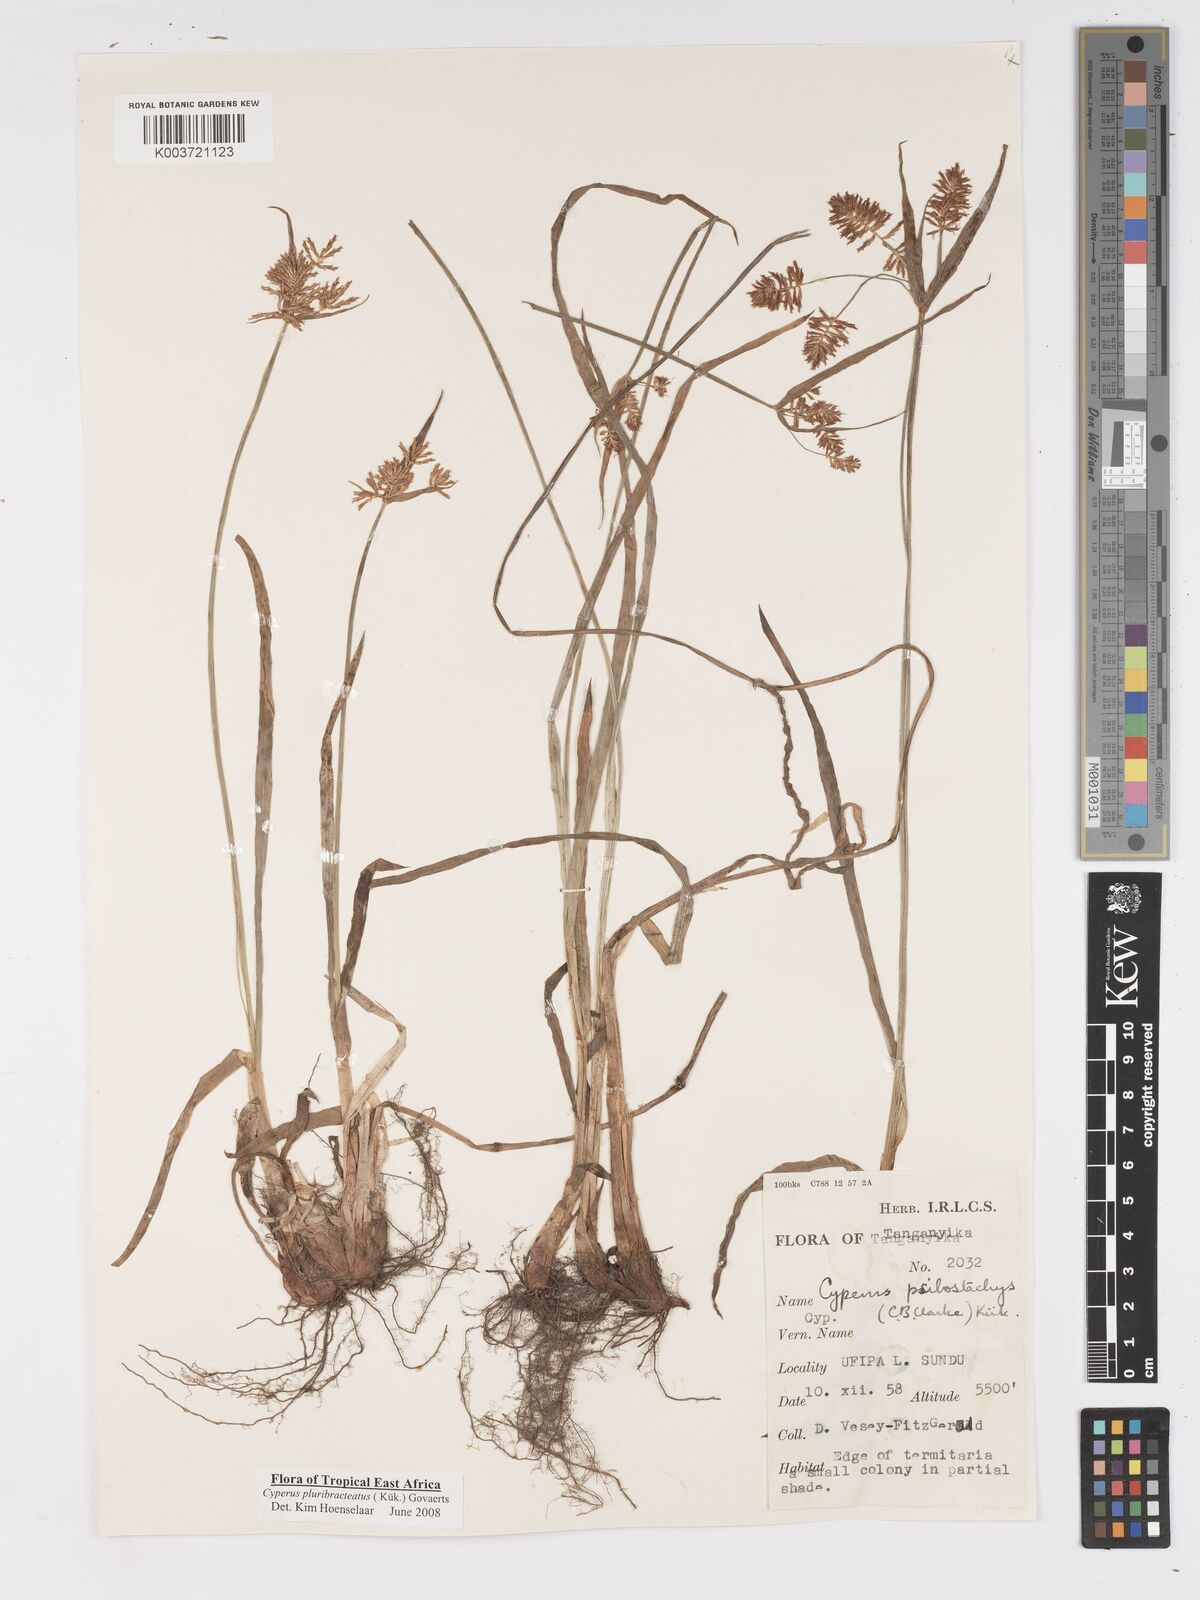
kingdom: Plantae
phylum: Tracheophyta
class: Liliopsida
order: Poales
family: Cyperaceae
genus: Cyperus
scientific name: Cyperus trigonellus
